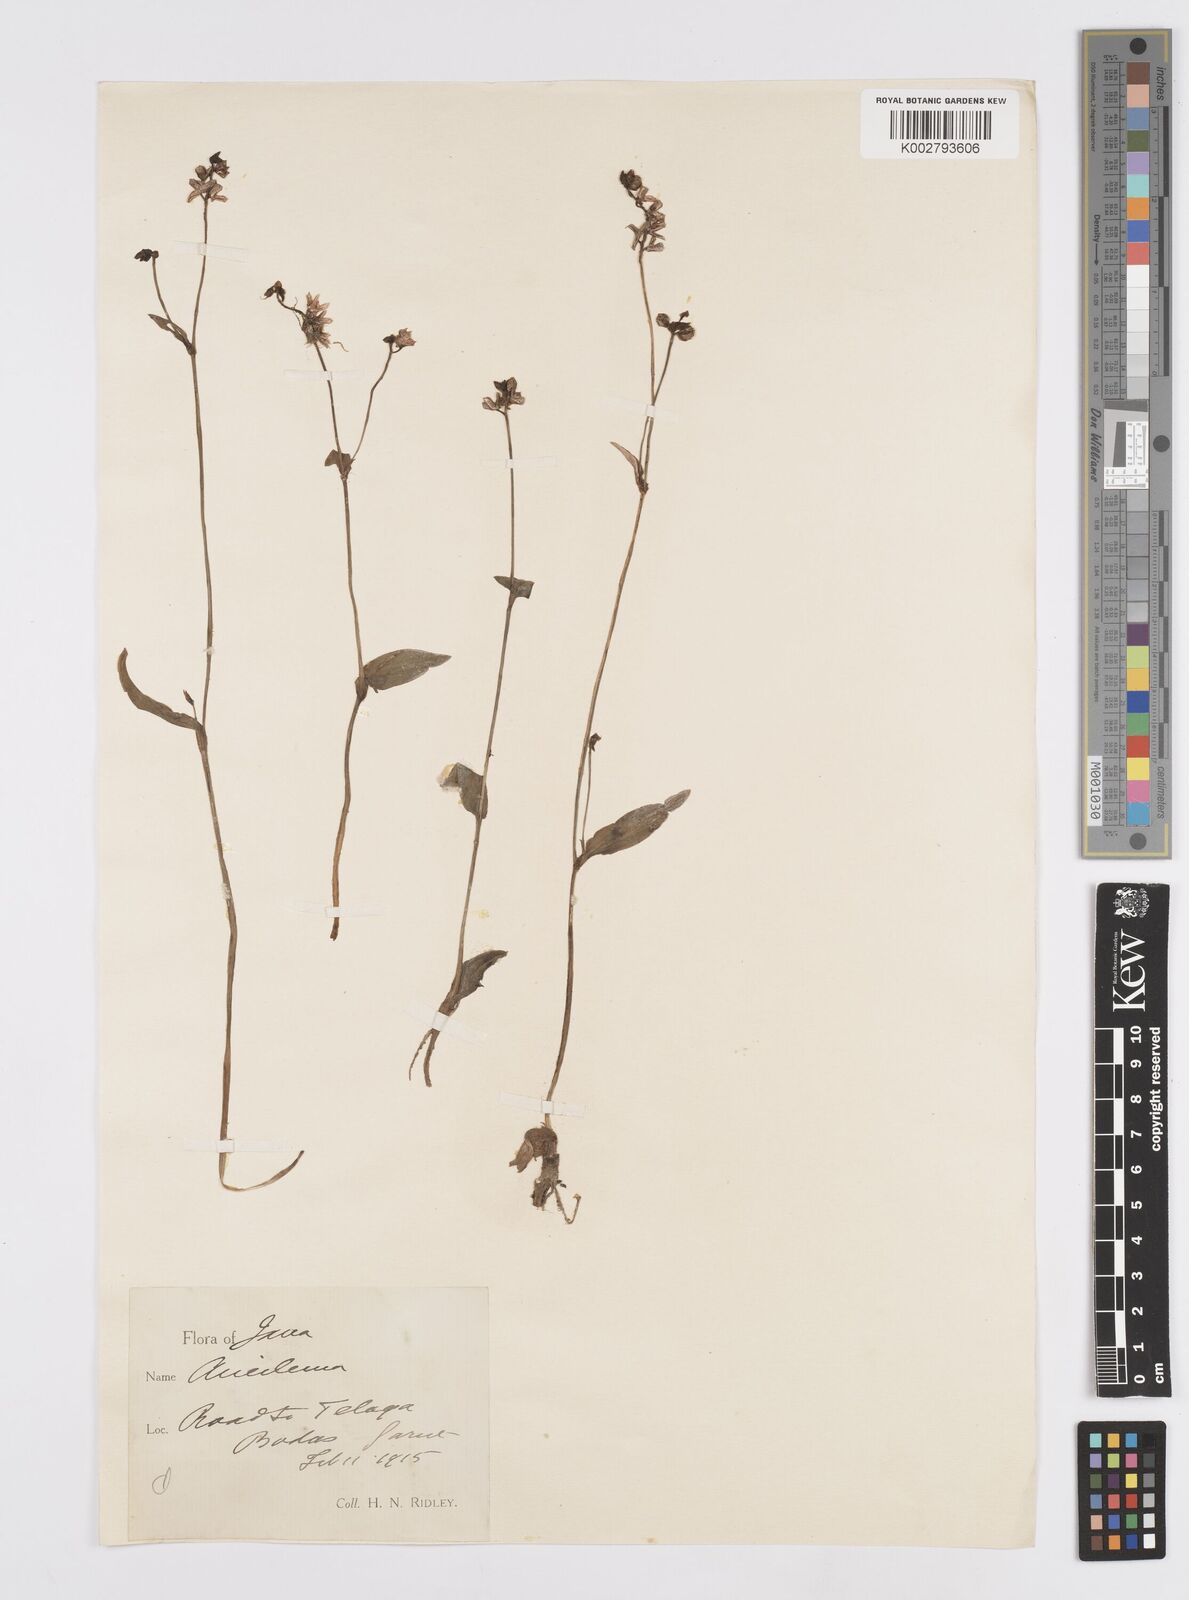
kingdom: Plantae
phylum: Tracheophyta
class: Liliopsida
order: Commelinales
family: Commelinaceae
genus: Murdannia
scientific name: Murdannia nudiflora
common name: Nakedstem dewflower
